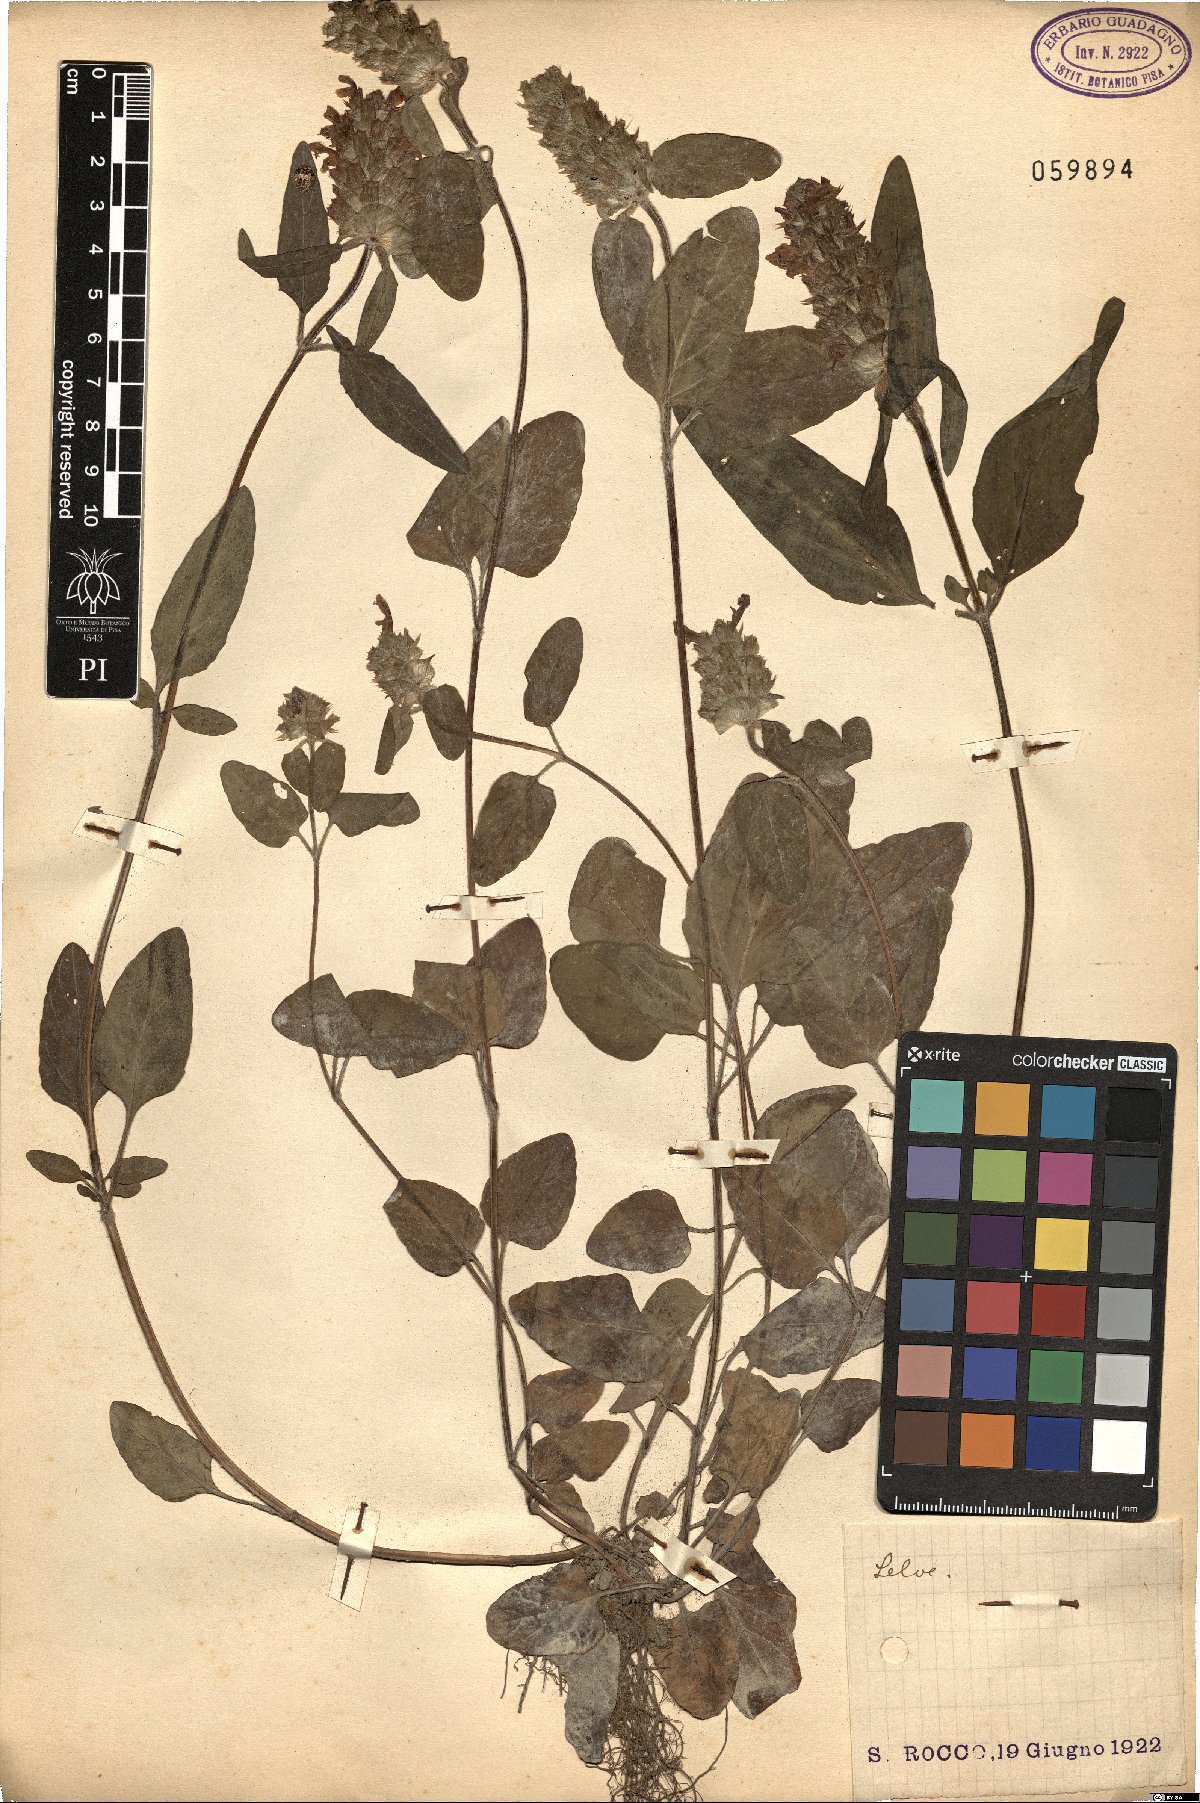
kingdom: Plantae
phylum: Tracheophyta
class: Magnoliopsida
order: Lamiales
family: Lamiaceae
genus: Prunella
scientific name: Prunella vulgaris
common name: Heal-all
